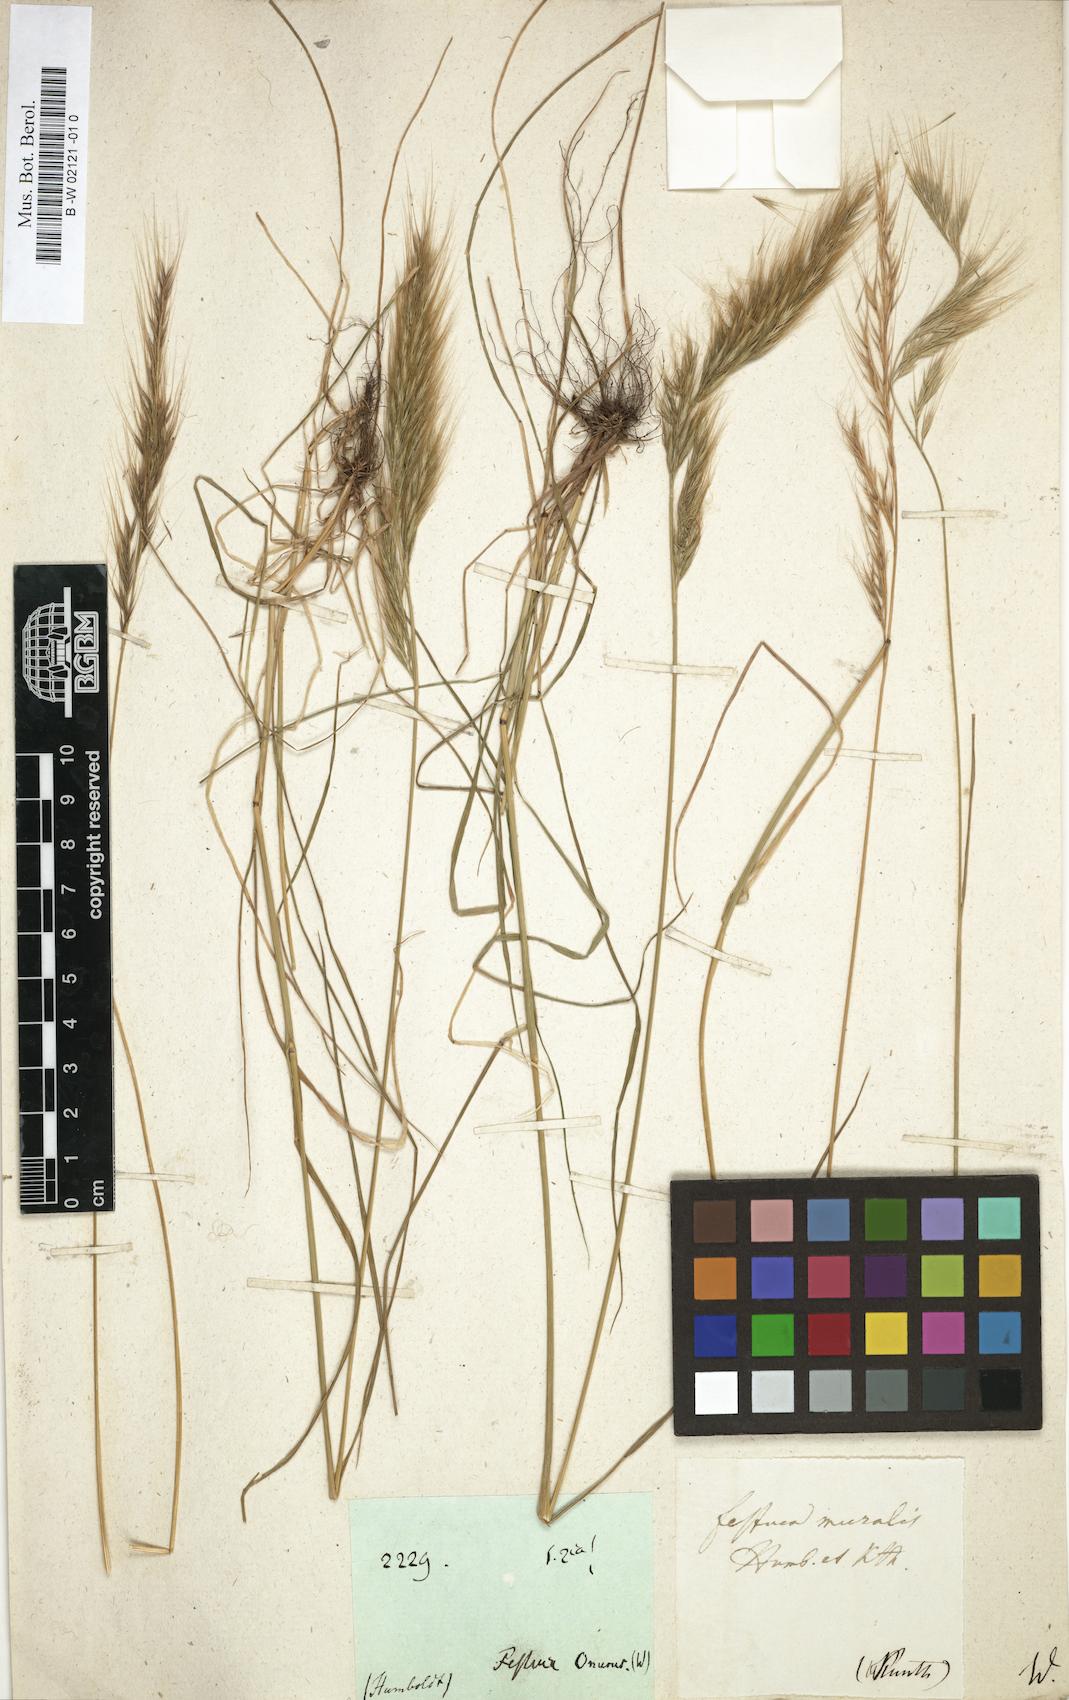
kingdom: Plantae
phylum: Tracheophyta
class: Liliopsida
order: Poales
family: Poaceae
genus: Festuca
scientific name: Festuca bromoides
